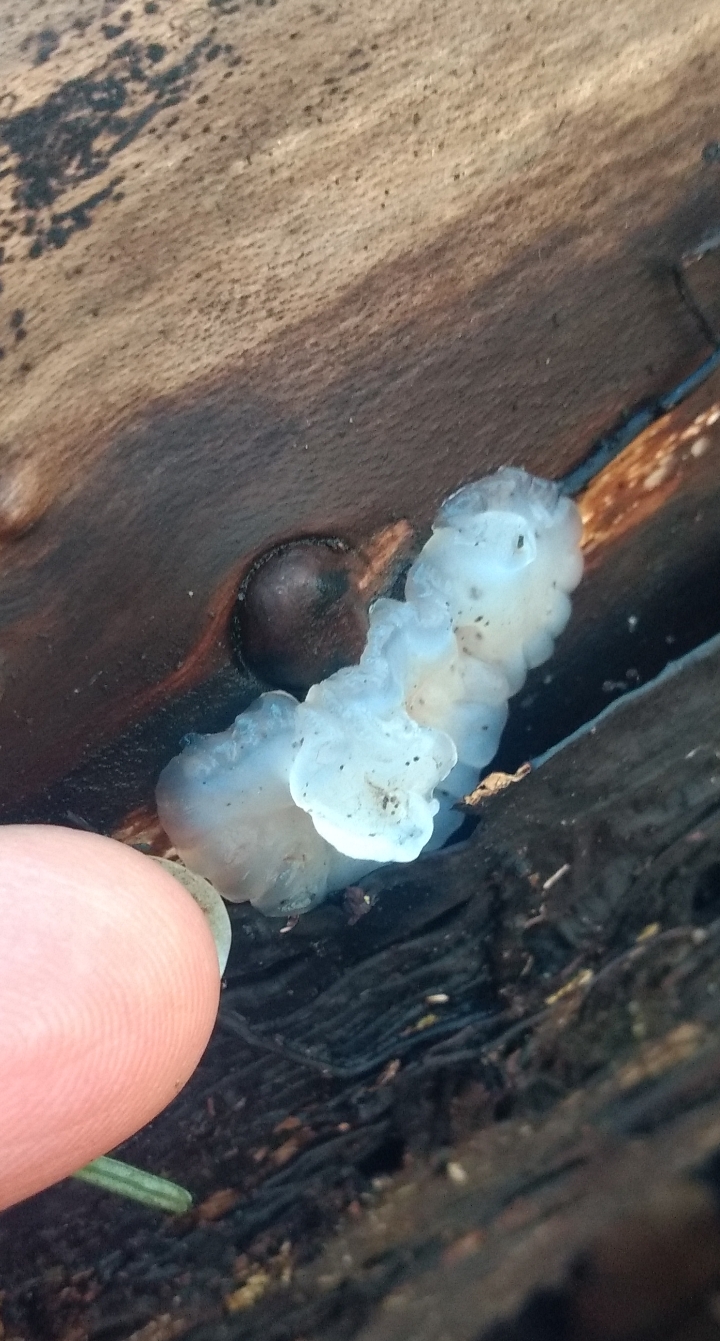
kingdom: Fungi
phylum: Basidiomycota
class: Agaricomycetes
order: Auriculariales
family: Auriculariaceae
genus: Exidia
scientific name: Exidia thuretiana
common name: hvidlig bævretop
